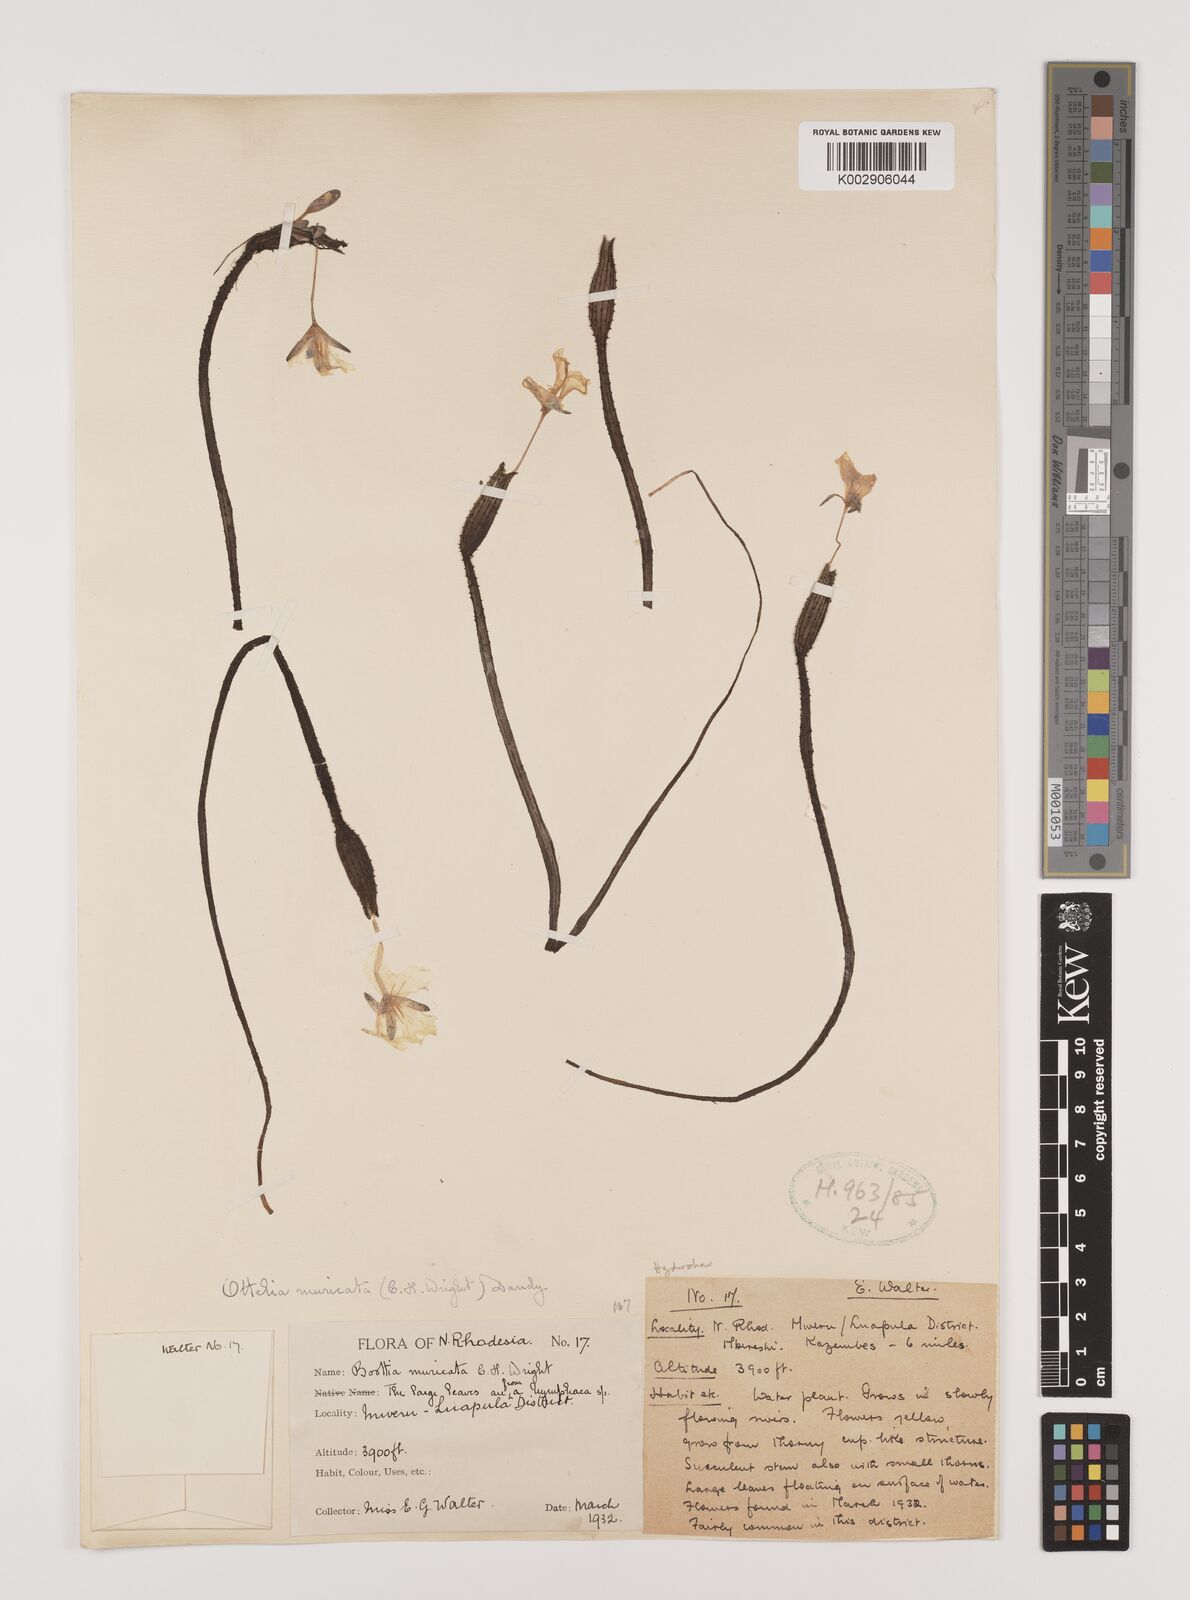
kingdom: Plantae
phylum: Tracheophyta
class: Liliopsida
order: Alismatales
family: Hydrocharitaceae
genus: Ottelia
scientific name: Ottelia muricata
